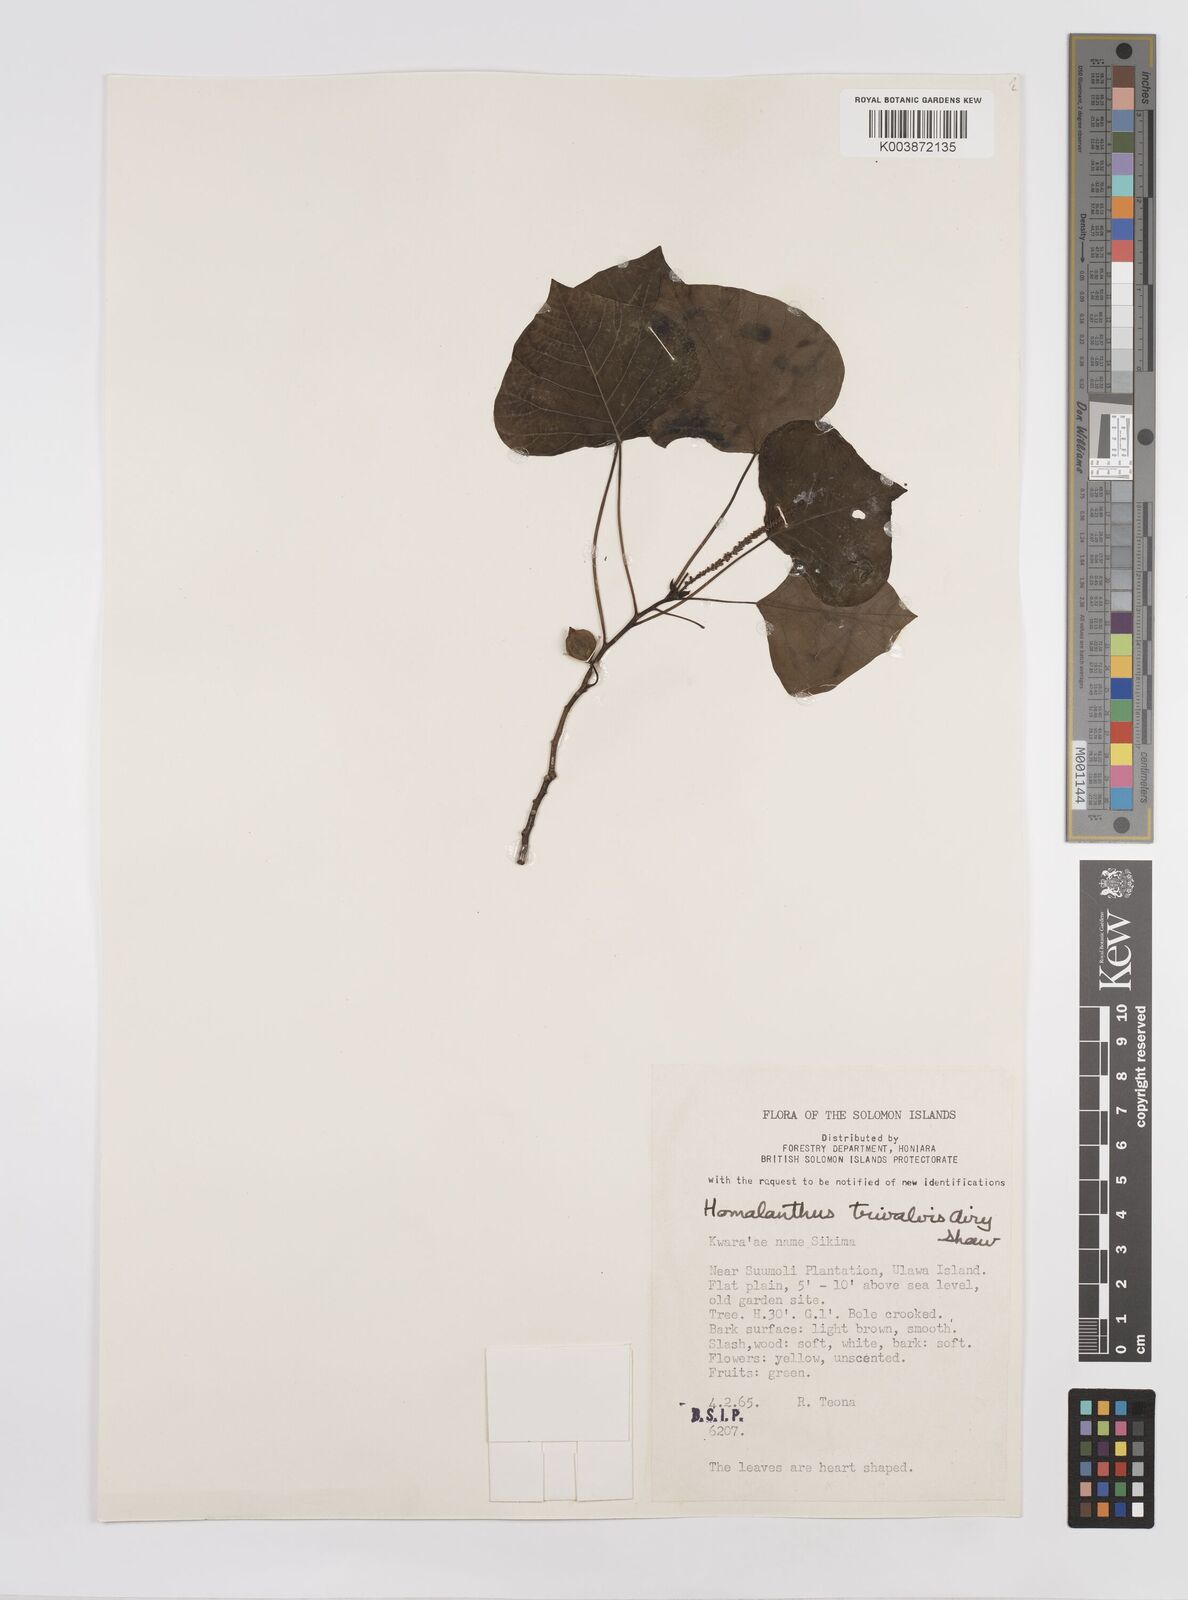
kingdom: Plantae
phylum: Tracheophyta
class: Magnoliopsida
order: Malpighiales
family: Euphorbiaceae
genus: Homalanthus
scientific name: Homalanthus trivalvis
